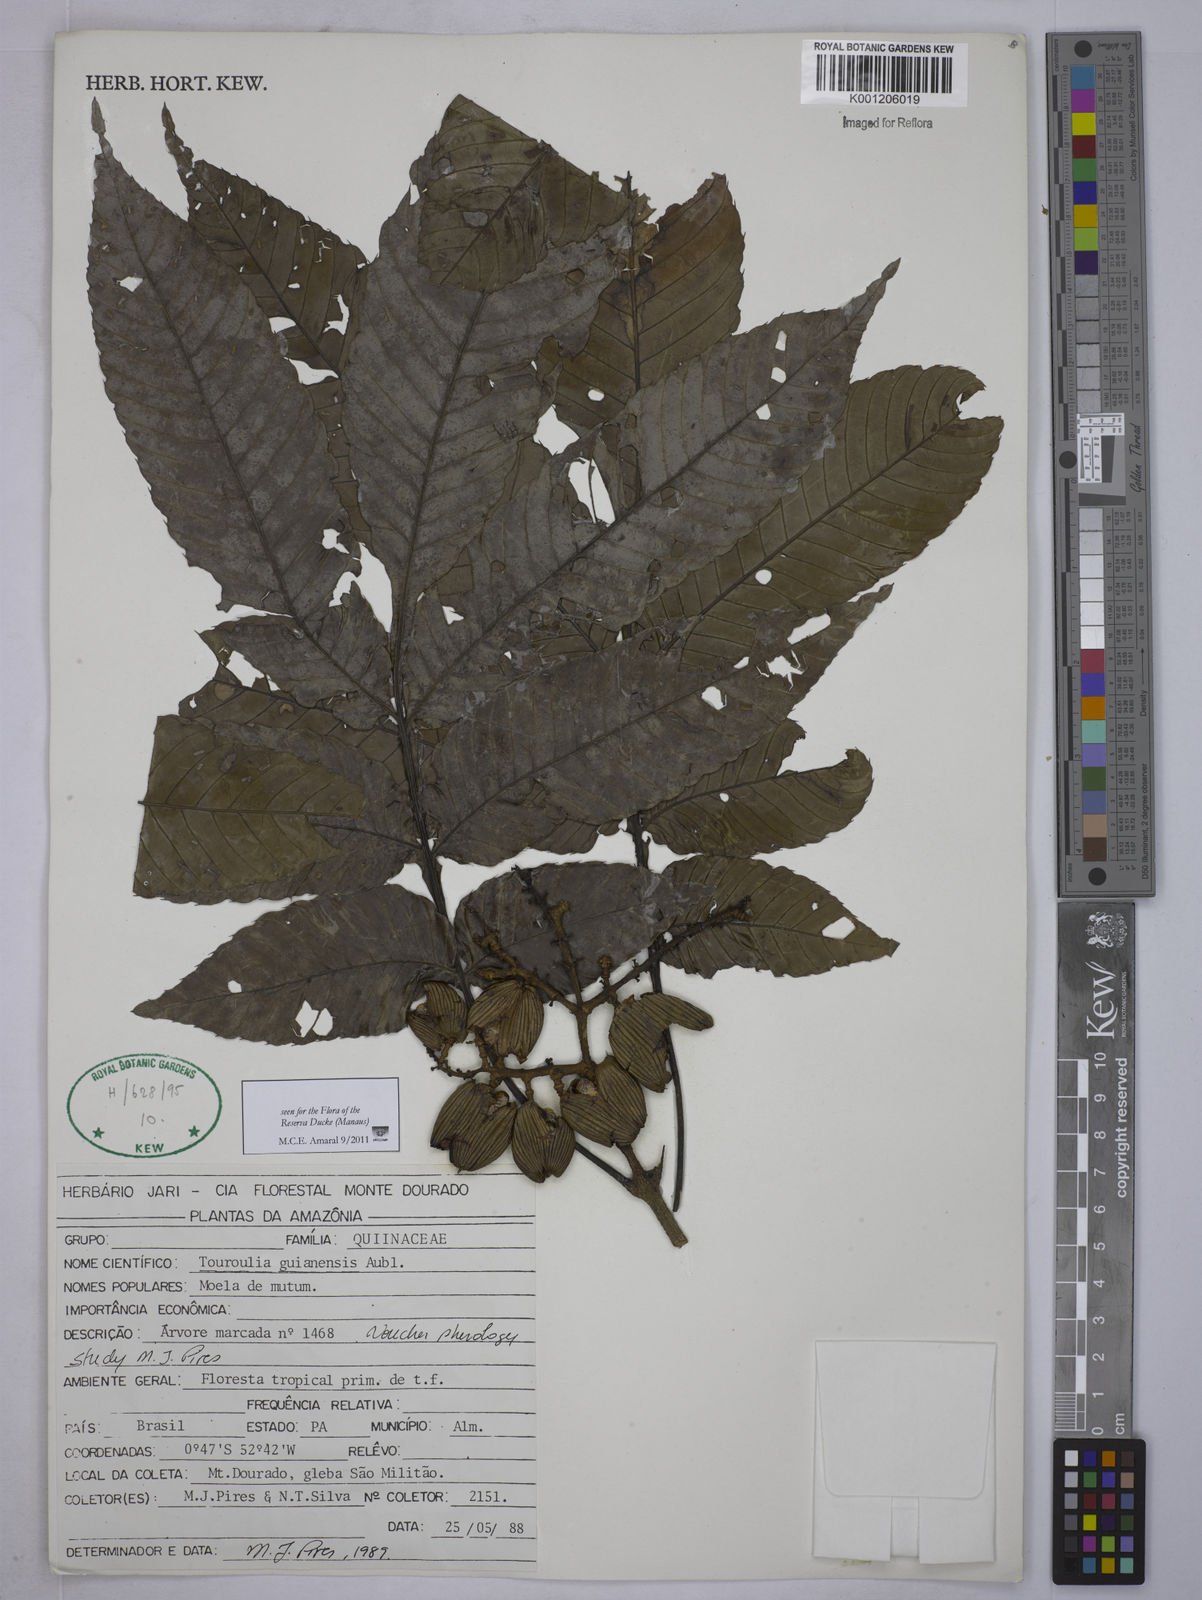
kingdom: Plantae
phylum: Tracheophyta
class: Magnoliopsida
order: Malpighiales
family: Quiinaceae
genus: Touroulia
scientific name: Touroulia guianensis
